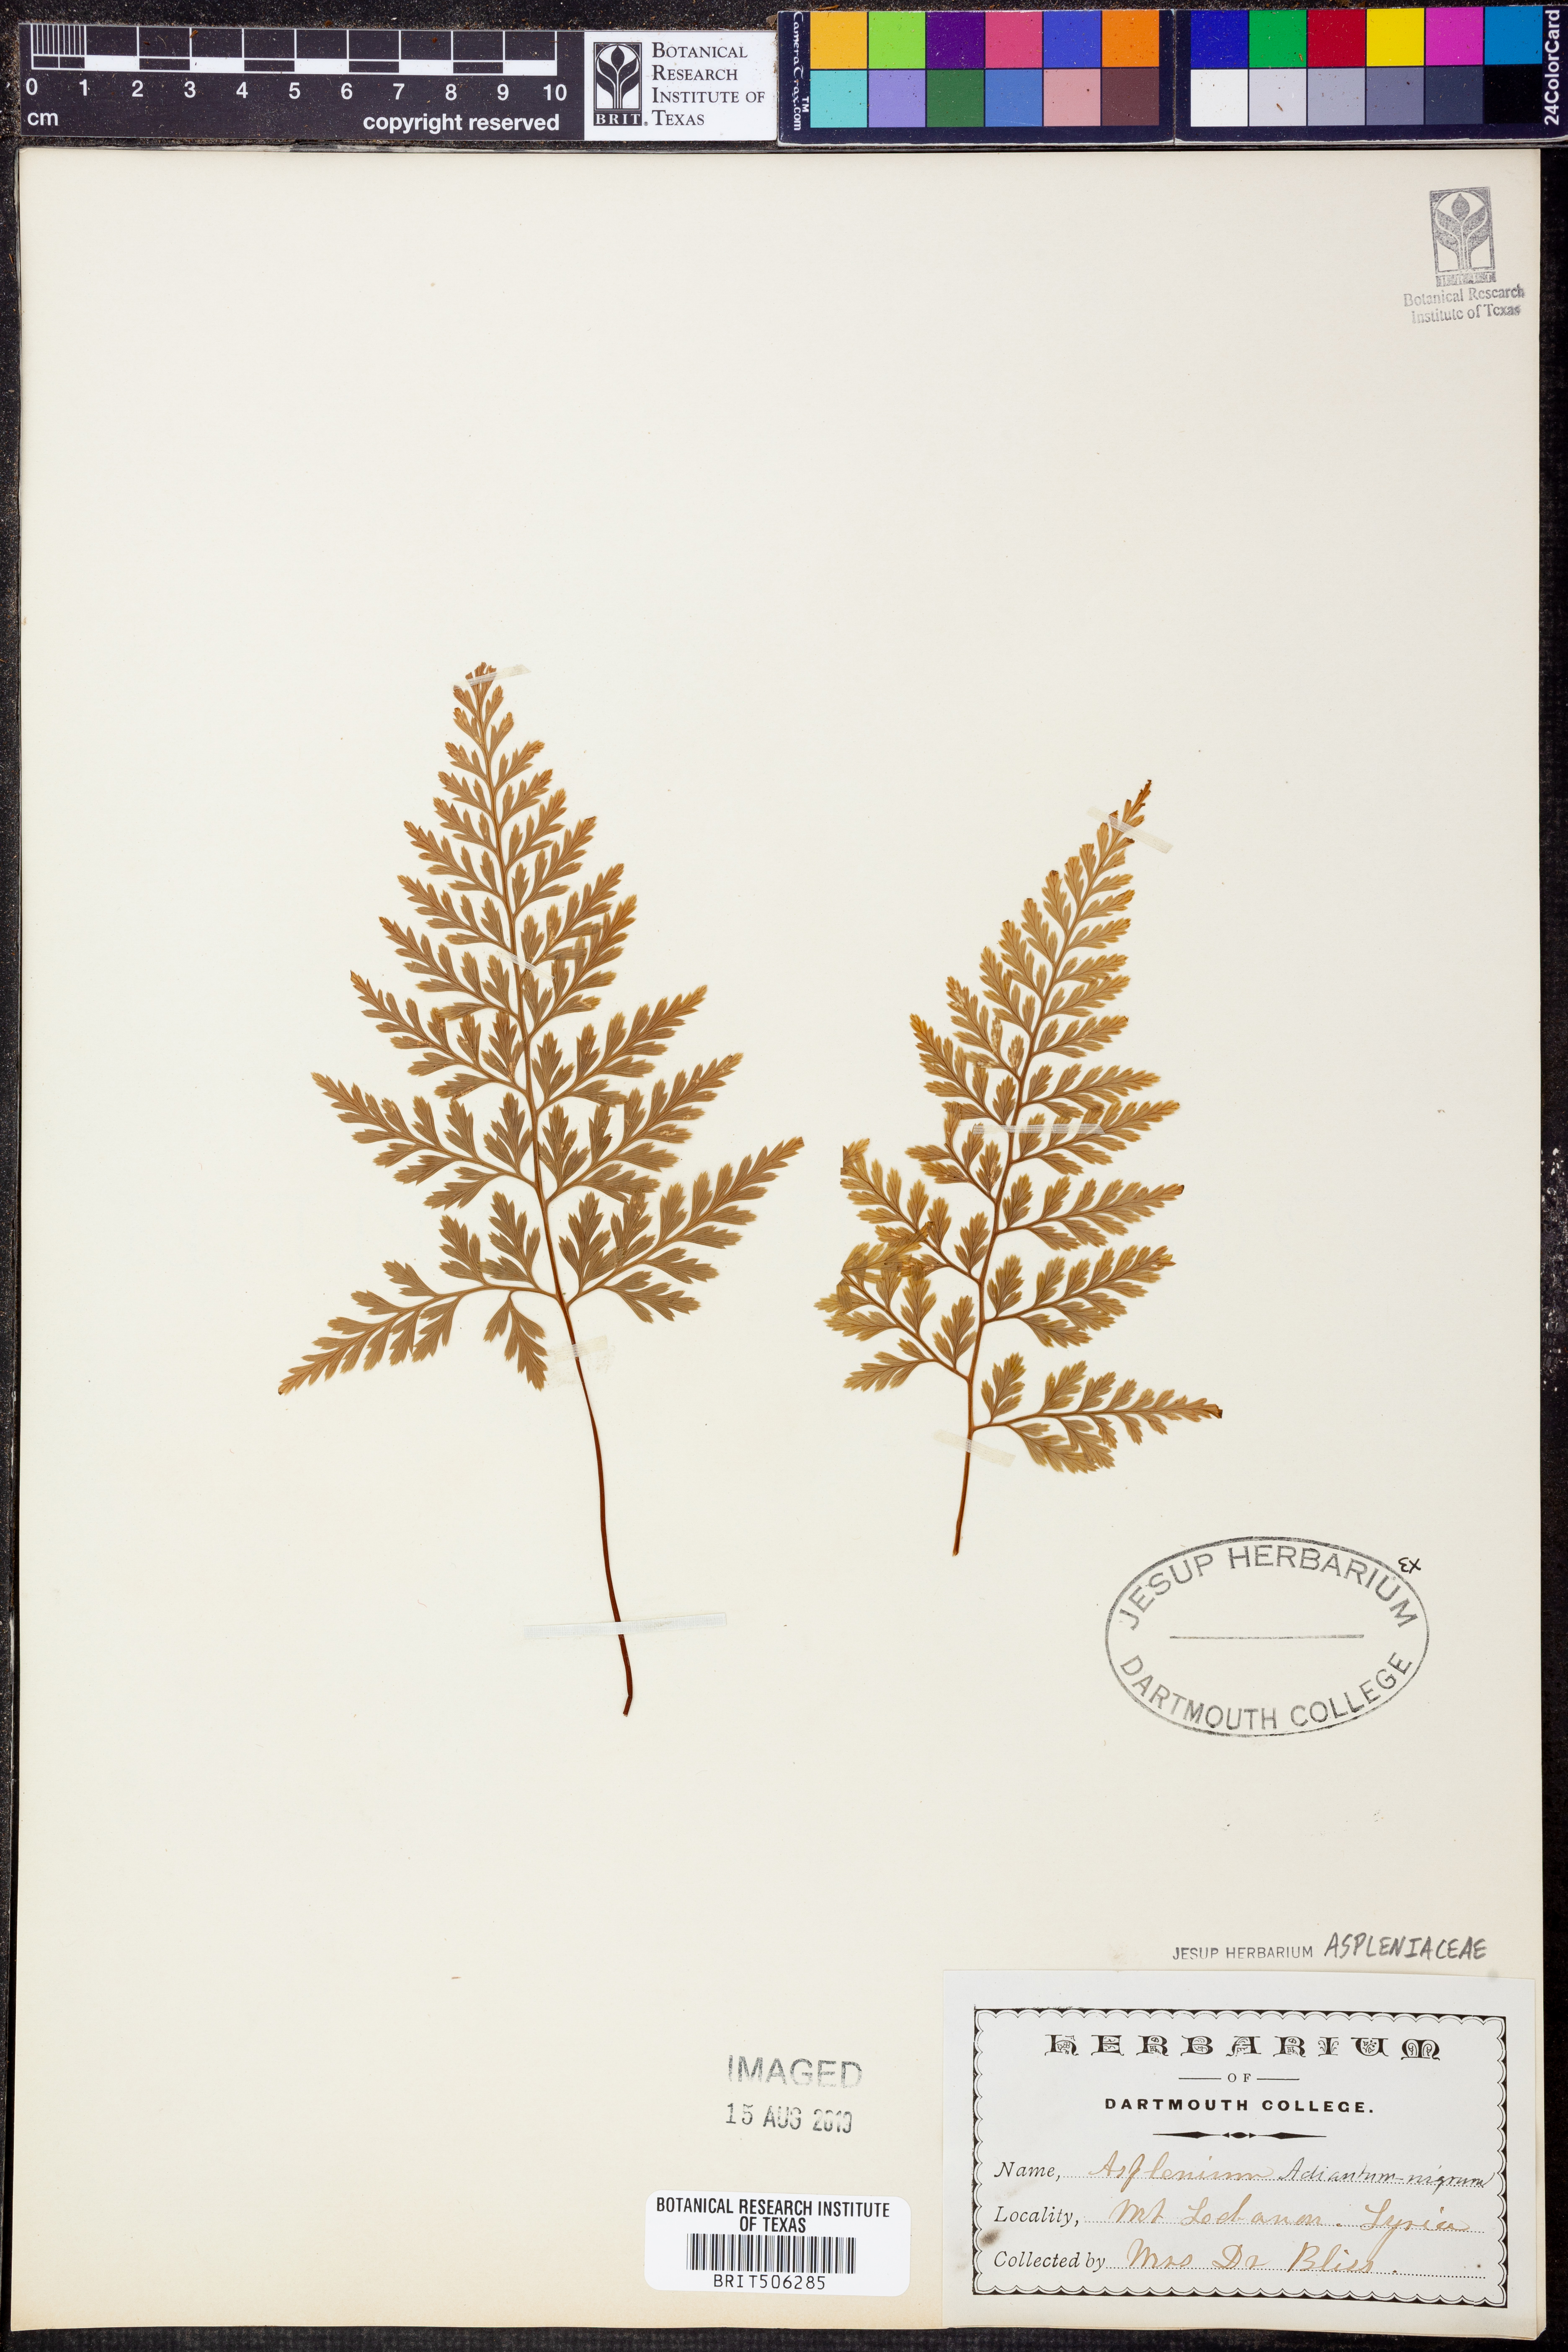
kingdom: Plantae
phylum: Tracheophyta
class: Polypodiopsida
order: Polypodiales
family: Aspleniaceae
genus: Asplenium
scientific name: Asplenium adiantum-nigrum
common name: Black spleenwort
